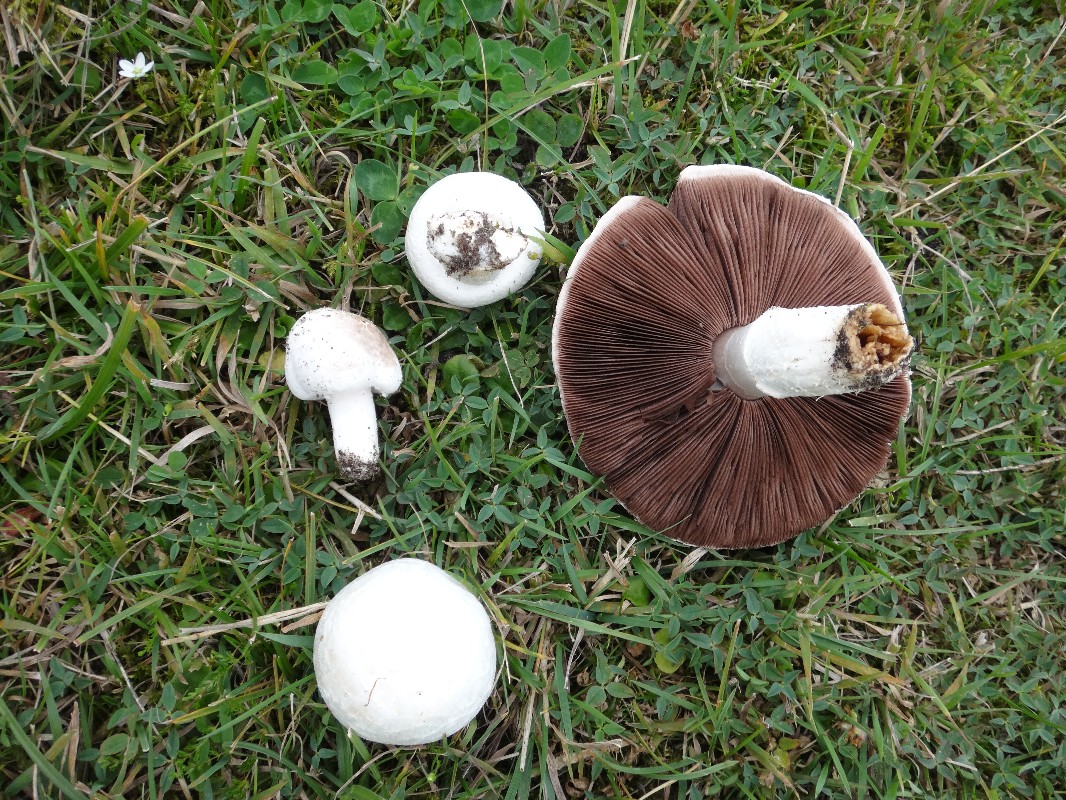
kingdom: Fungi
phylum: Basidiomycota
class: Agaricomycetes
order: Agaricales
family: Agaricaceae
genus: Agaricus
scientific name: Agaricus campestris
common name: mark-champignon
